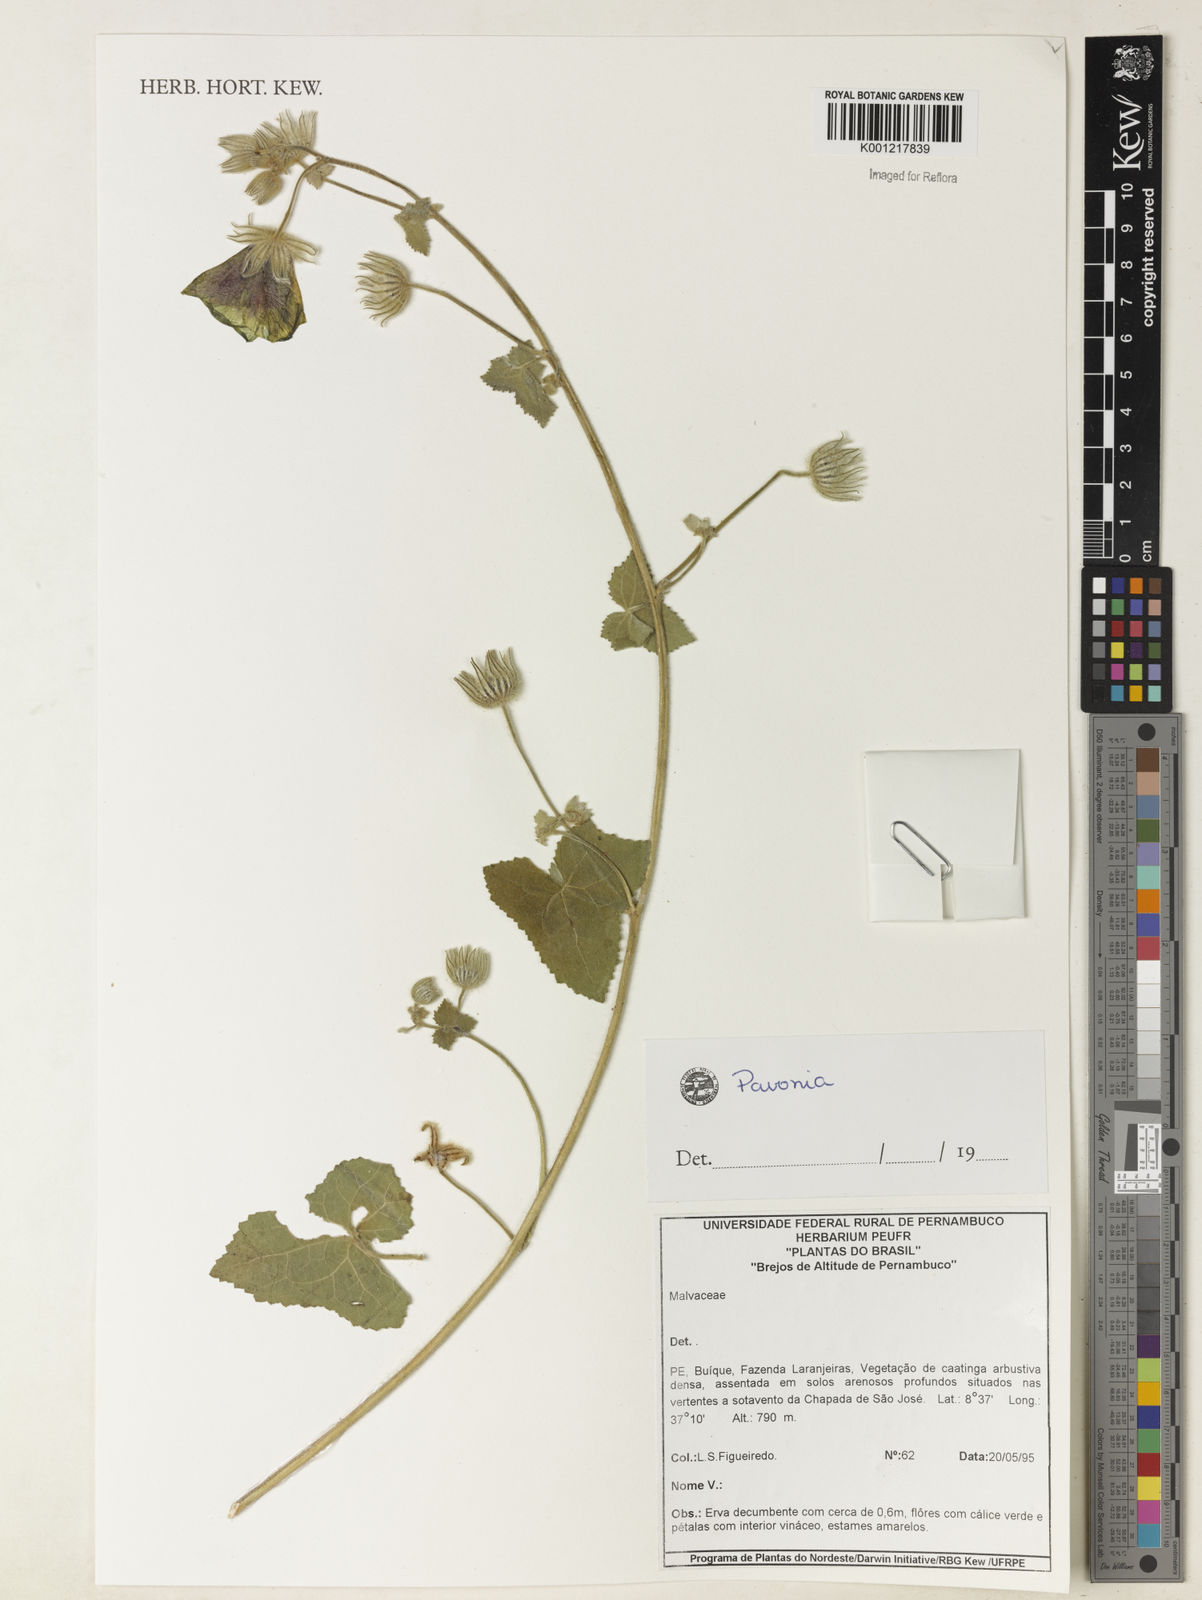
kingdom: Plantae
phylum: Tracheophyta
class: Magnoliopsida
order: Malvales
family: Malvaceae
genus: Pavonia
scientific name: Pavonia
